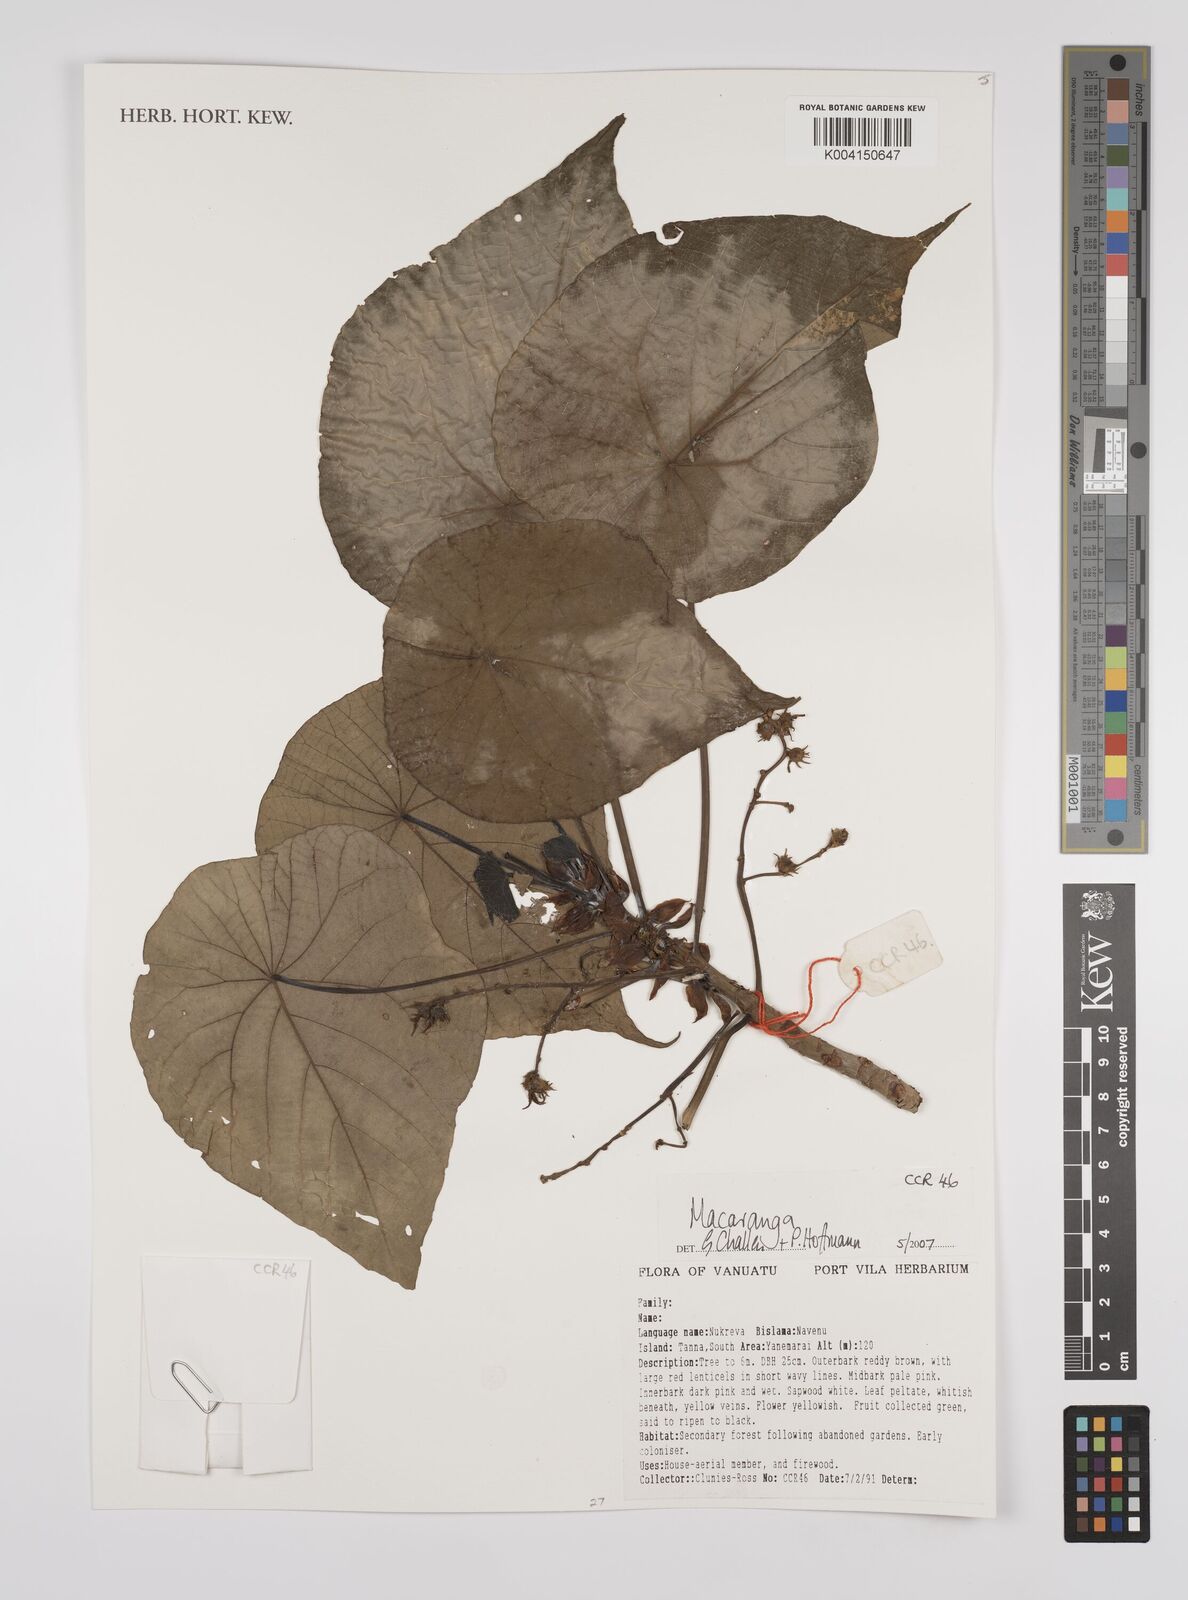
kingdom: Plantae
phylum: Tracheophyta
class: Magnoliopsida
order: Malpighiales
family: Euphorbiaceae
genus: Macaranga
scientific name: Macaranga
